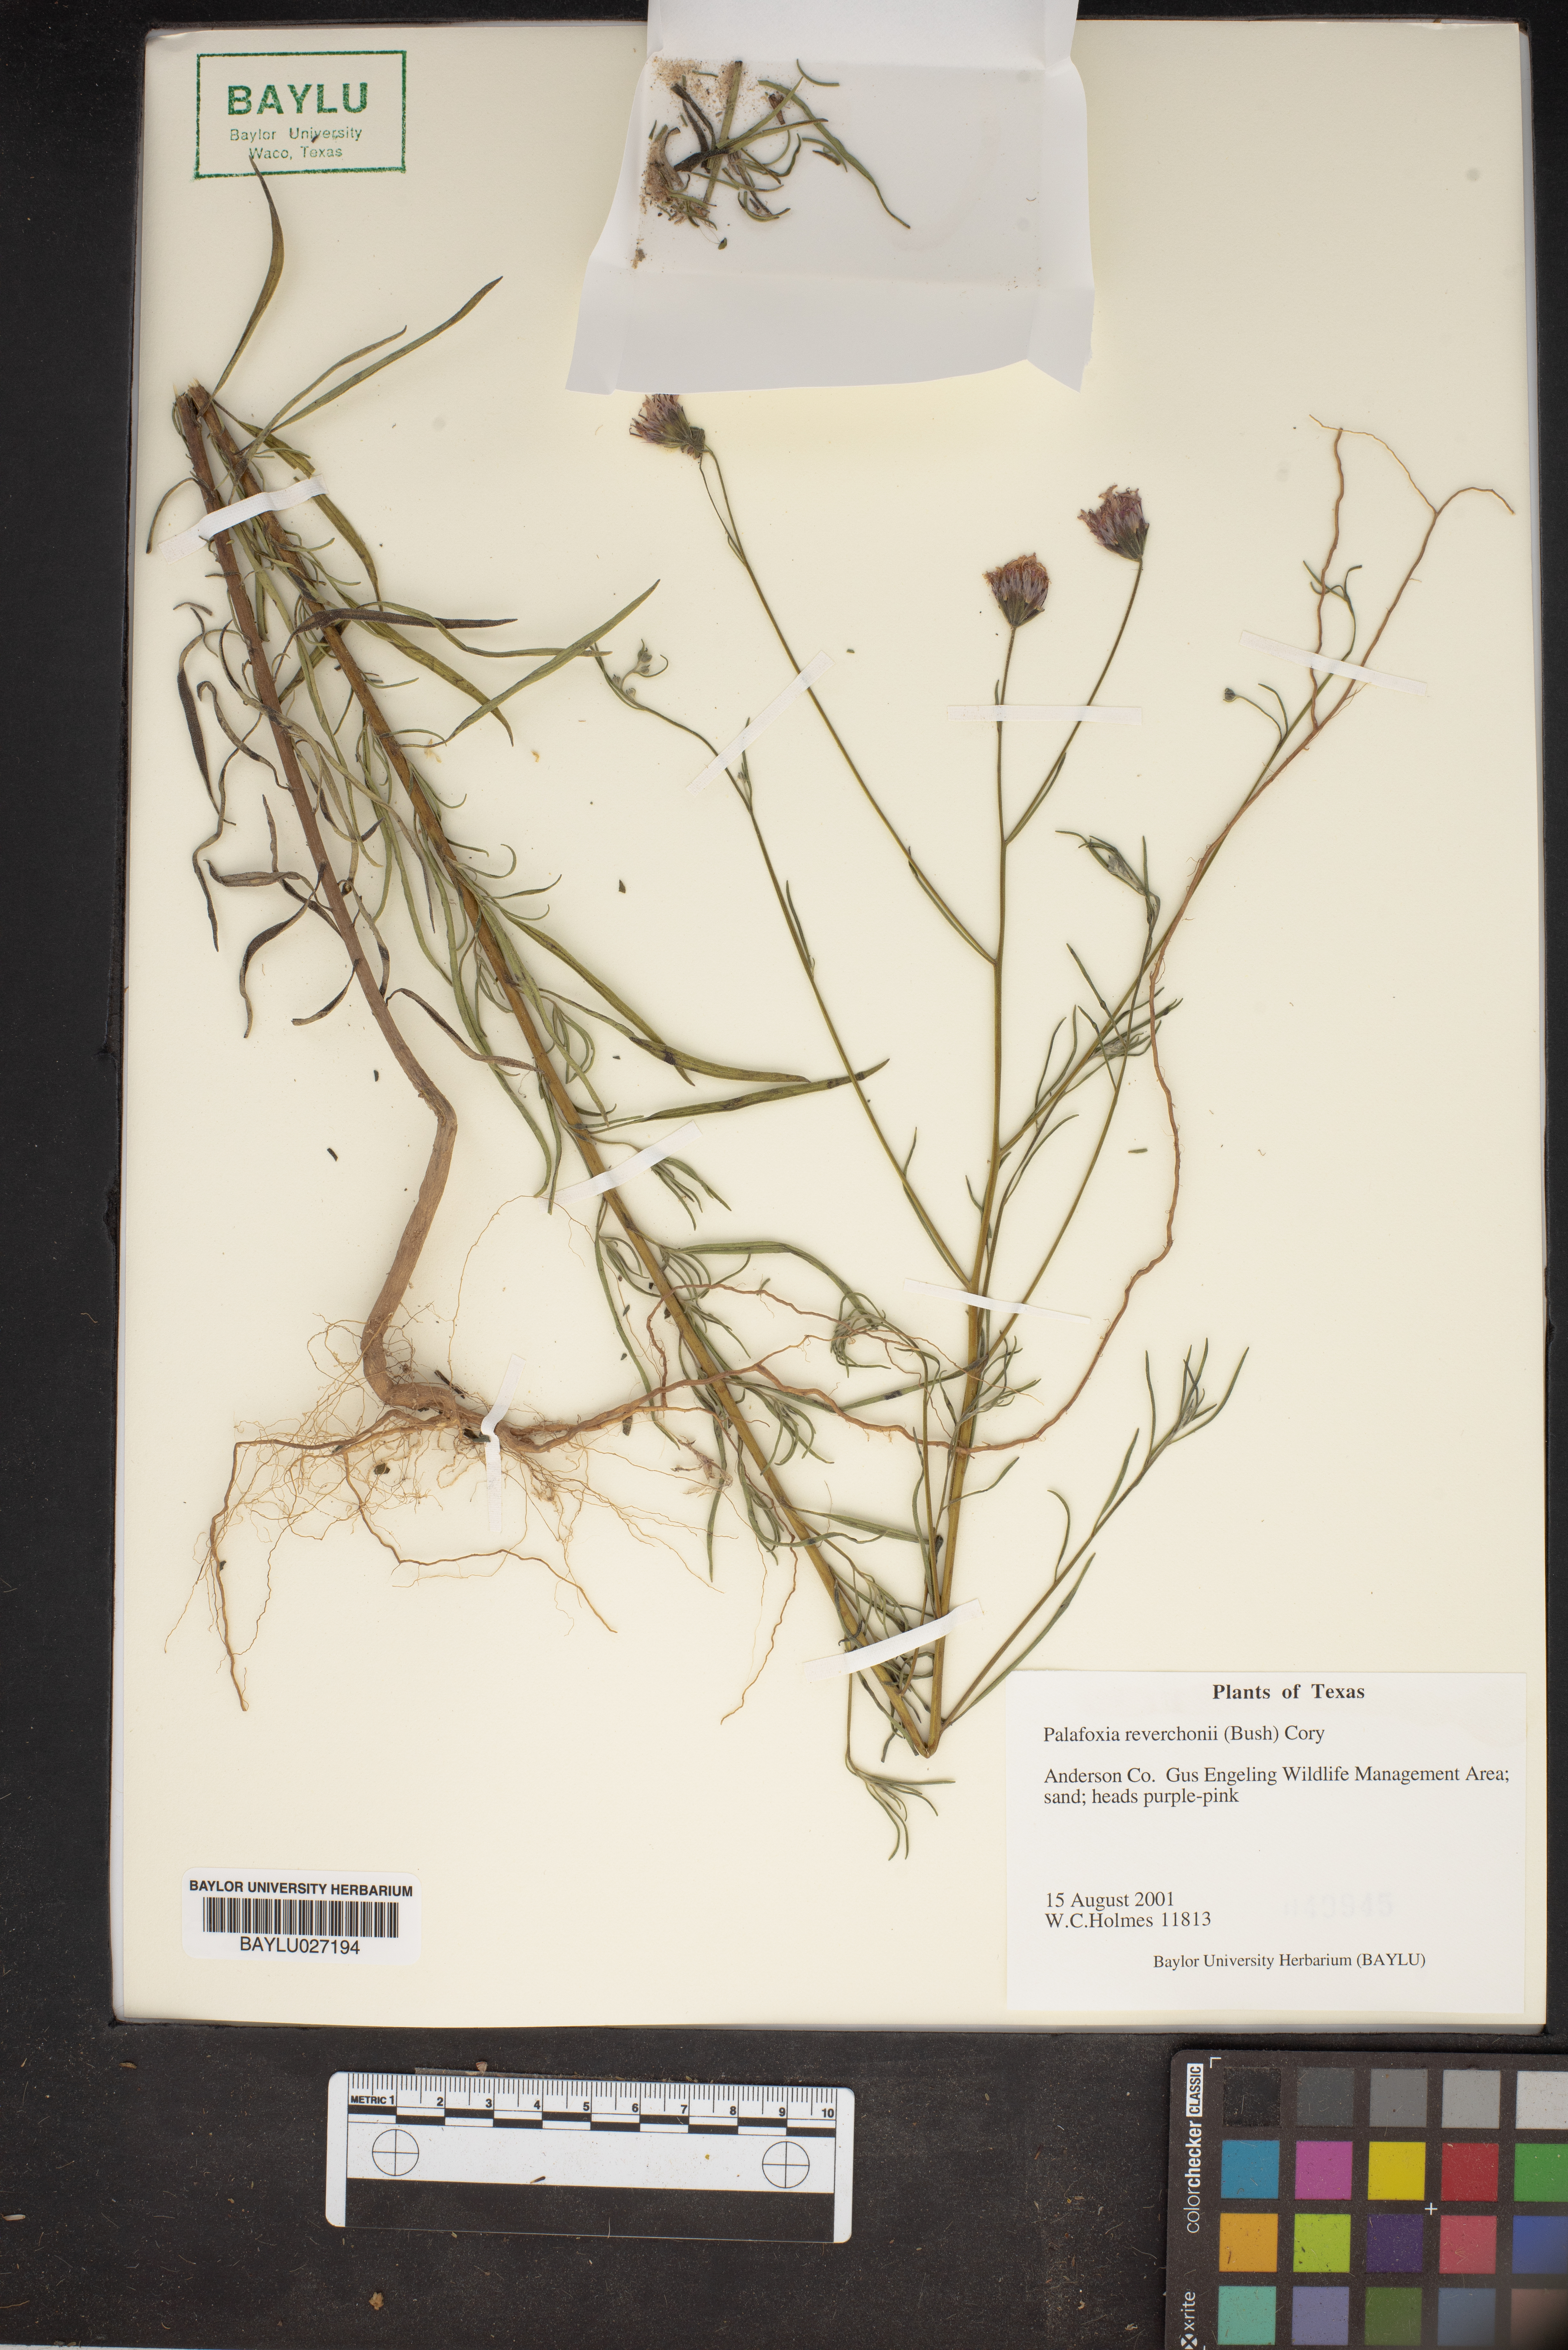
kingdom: Plantae
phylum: Tracheophyta
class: Magnoliopsida
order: Asterales
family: Asteraceae
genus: Palafoxia
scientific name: Palafoxia reverchonii
